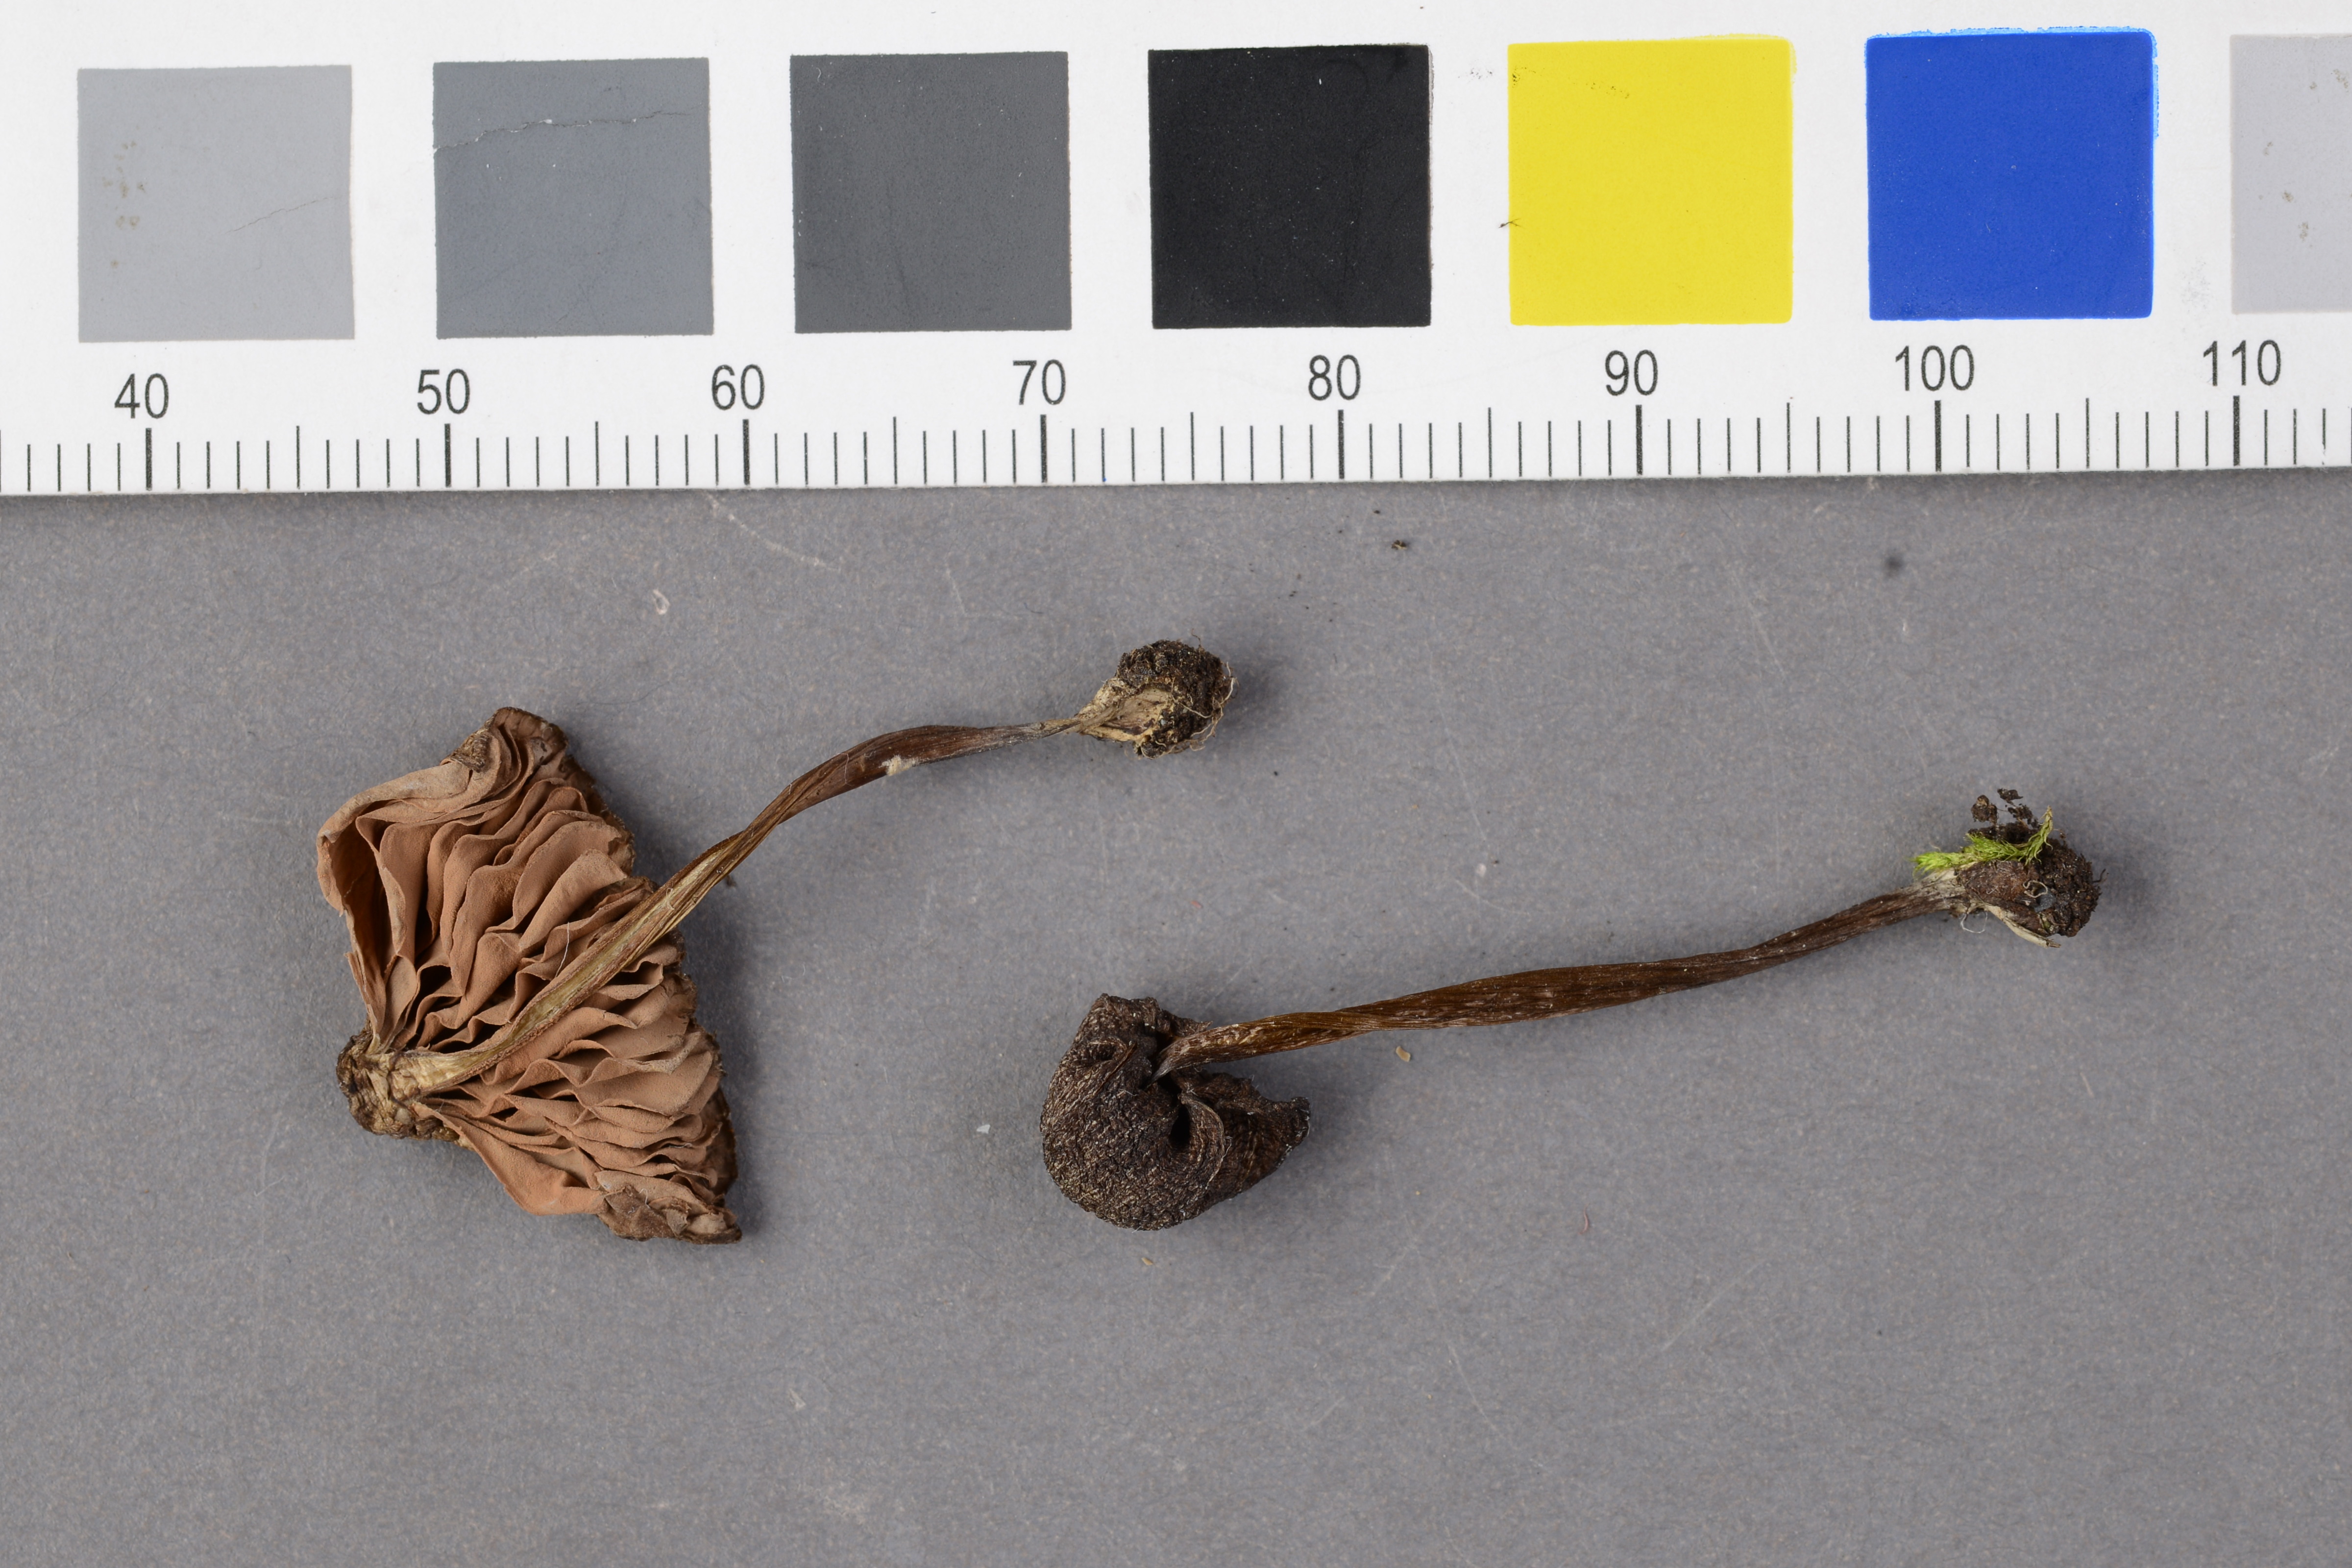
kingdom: Fungi
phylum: Basidiomycota
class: Agaricomycetes
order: Agaricales
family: Entolomataceae
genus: Entoloma
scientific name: Entoloma clandestinum
